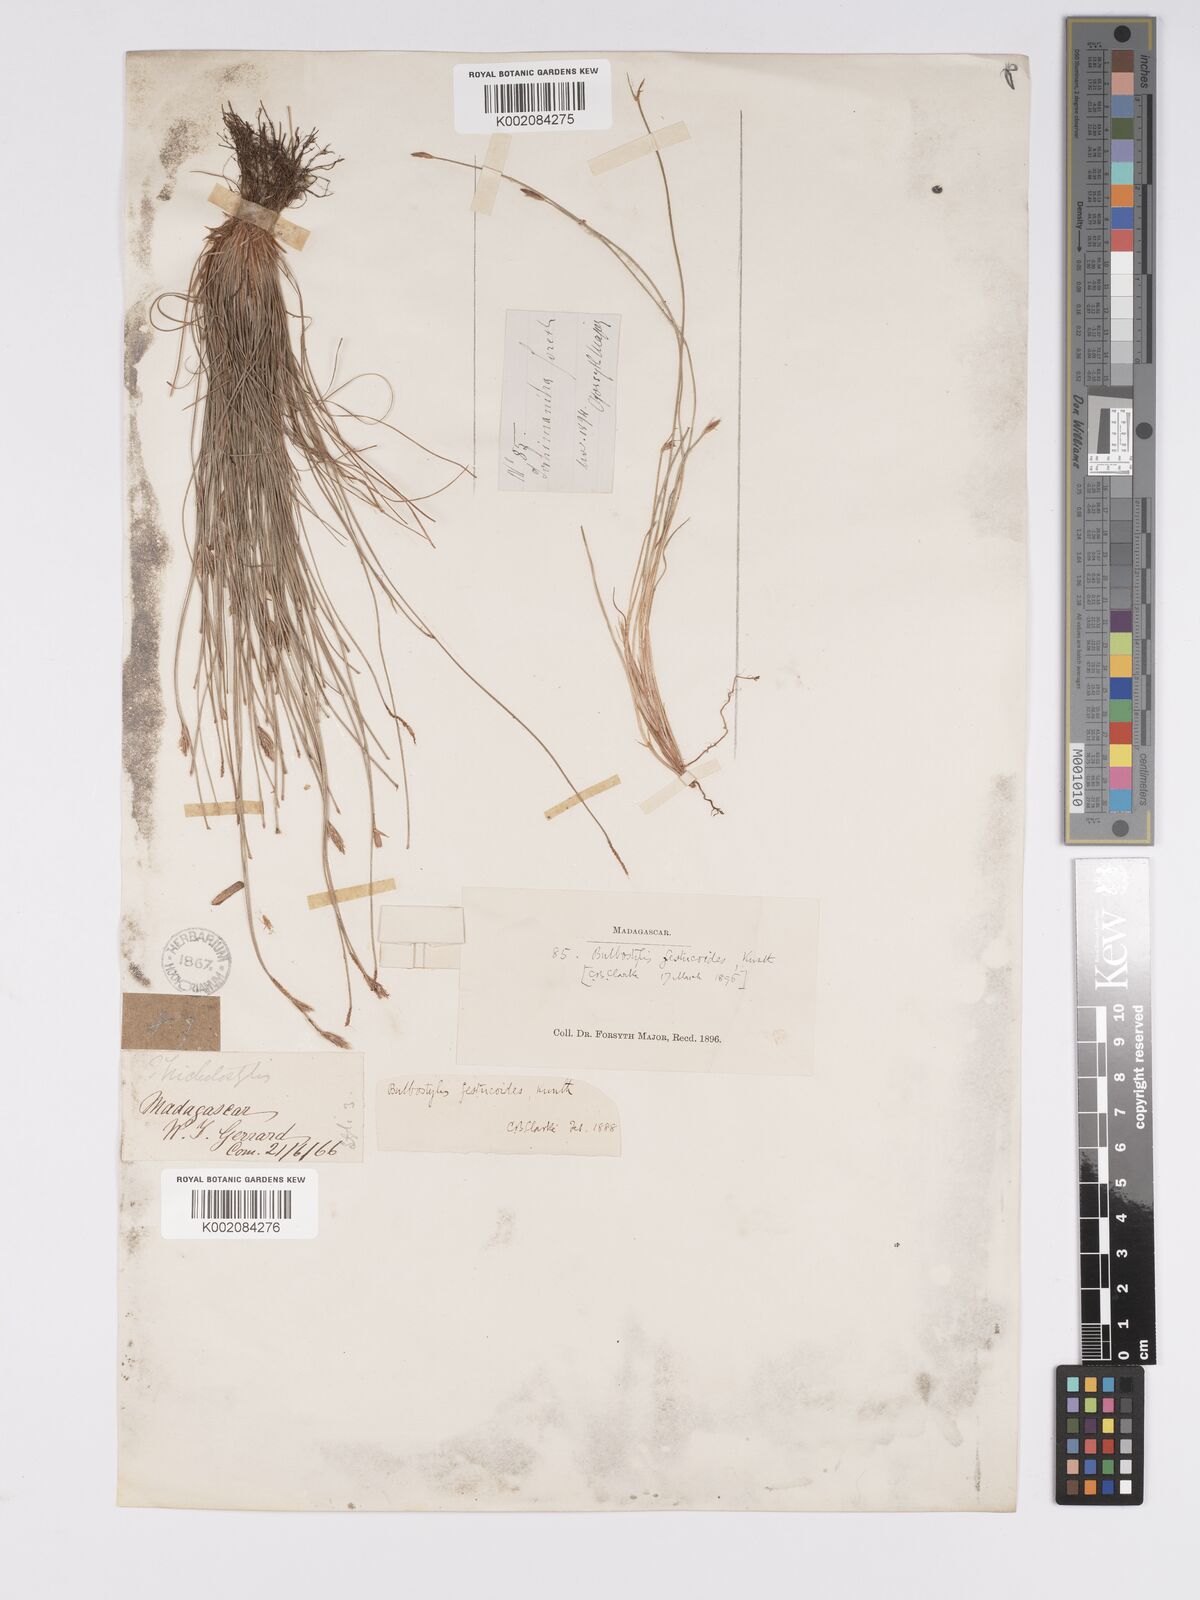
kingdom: Plantae
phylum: Tracheophyta
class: Liliopsida
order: Poales
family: Cyperaceae
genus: Bulbostylis
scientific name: Bulbostylis festucoides
